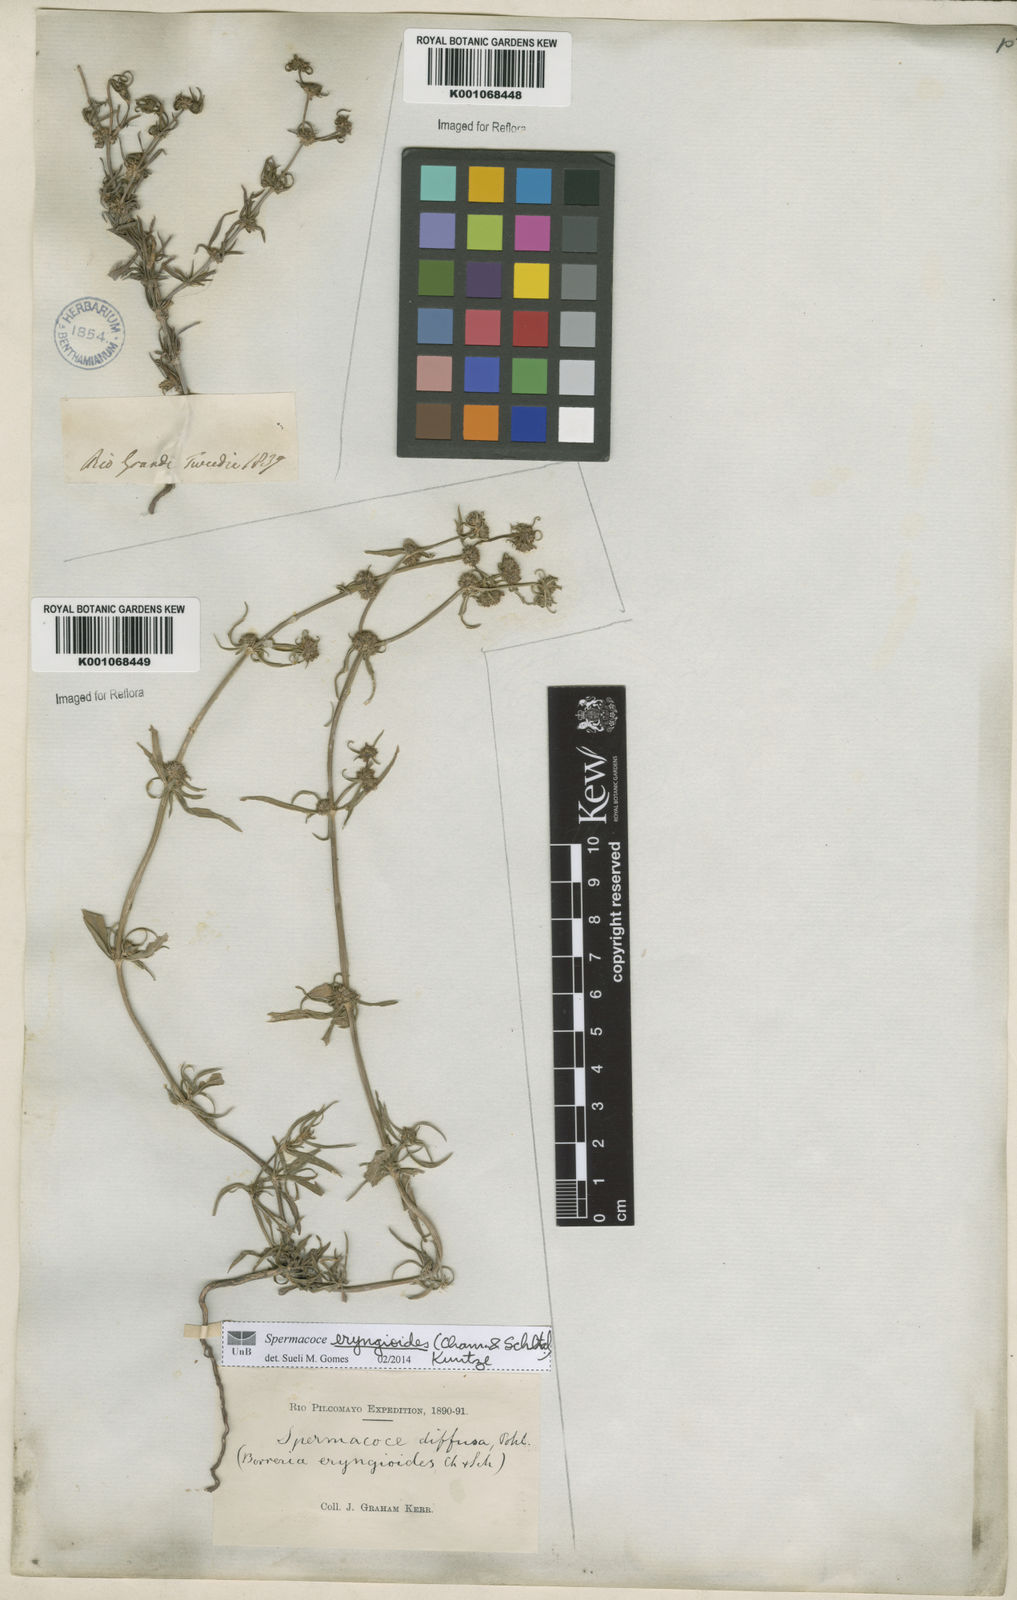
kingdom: Plantae
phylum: Tracheophyta
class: Magnoliopsida
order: Gentianales
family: Rubiaceae
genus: Spermacoce
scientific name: Spermacoce eryngioides
